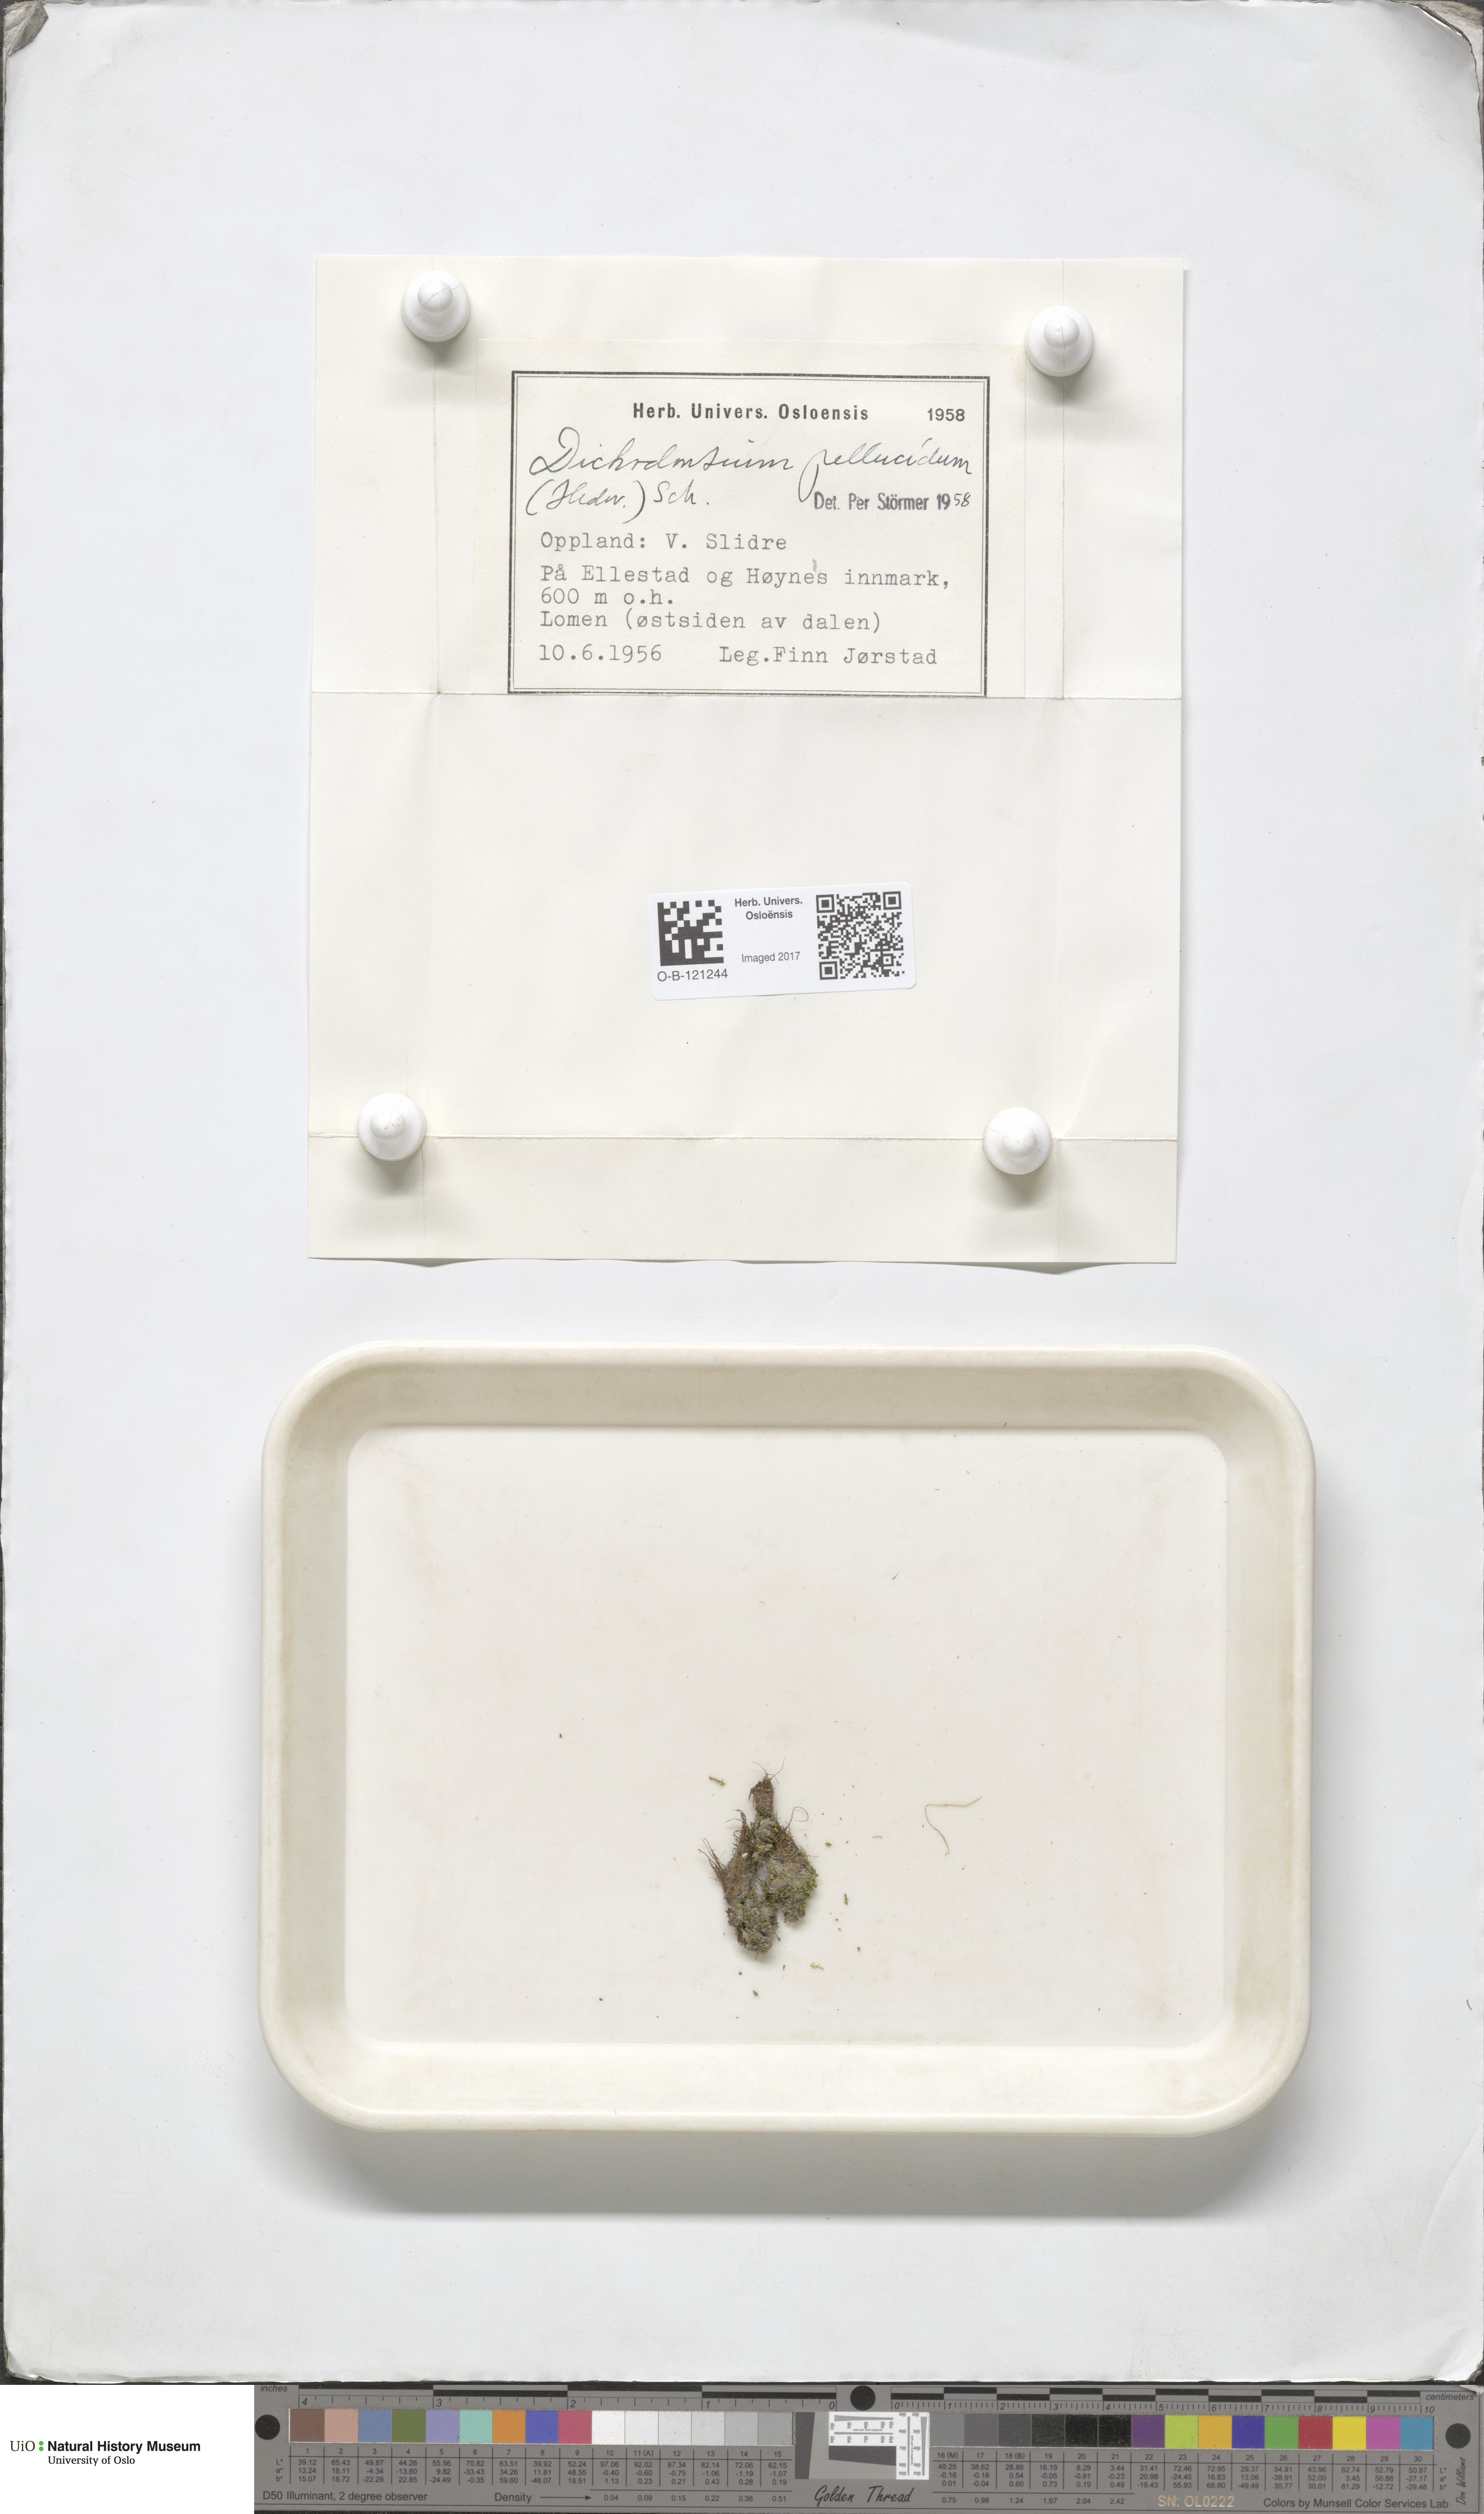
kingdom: Plantae
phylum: Bryophyta
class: Bryopsida
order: Dicranales
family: Aongstroemiaceae
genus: Dichodontium
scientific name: Dichodontium pellucidum
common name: Transparent fork moss
